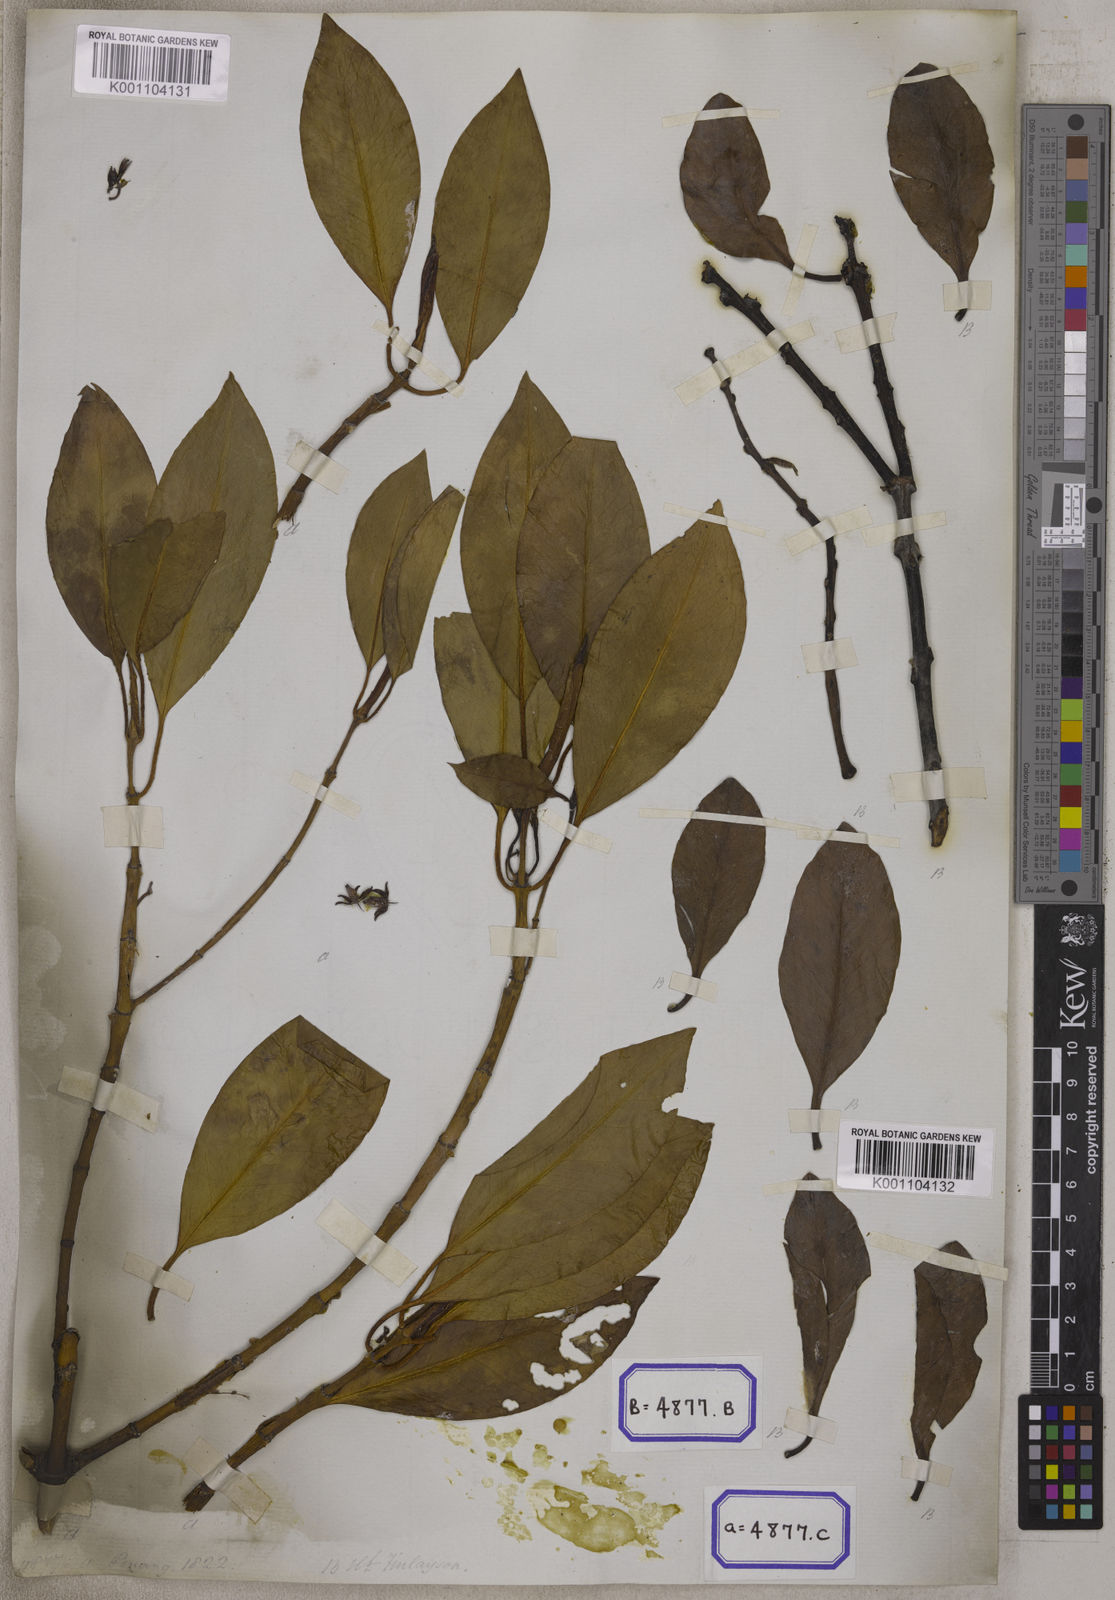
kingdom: Plantae
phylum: Tracheophyta
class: Magnoliopsida
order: Malpighiales
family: Rhizophoraceae
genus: Bruguiera
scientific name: Bruguiera parviflora
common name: Smallflower bruguiera
